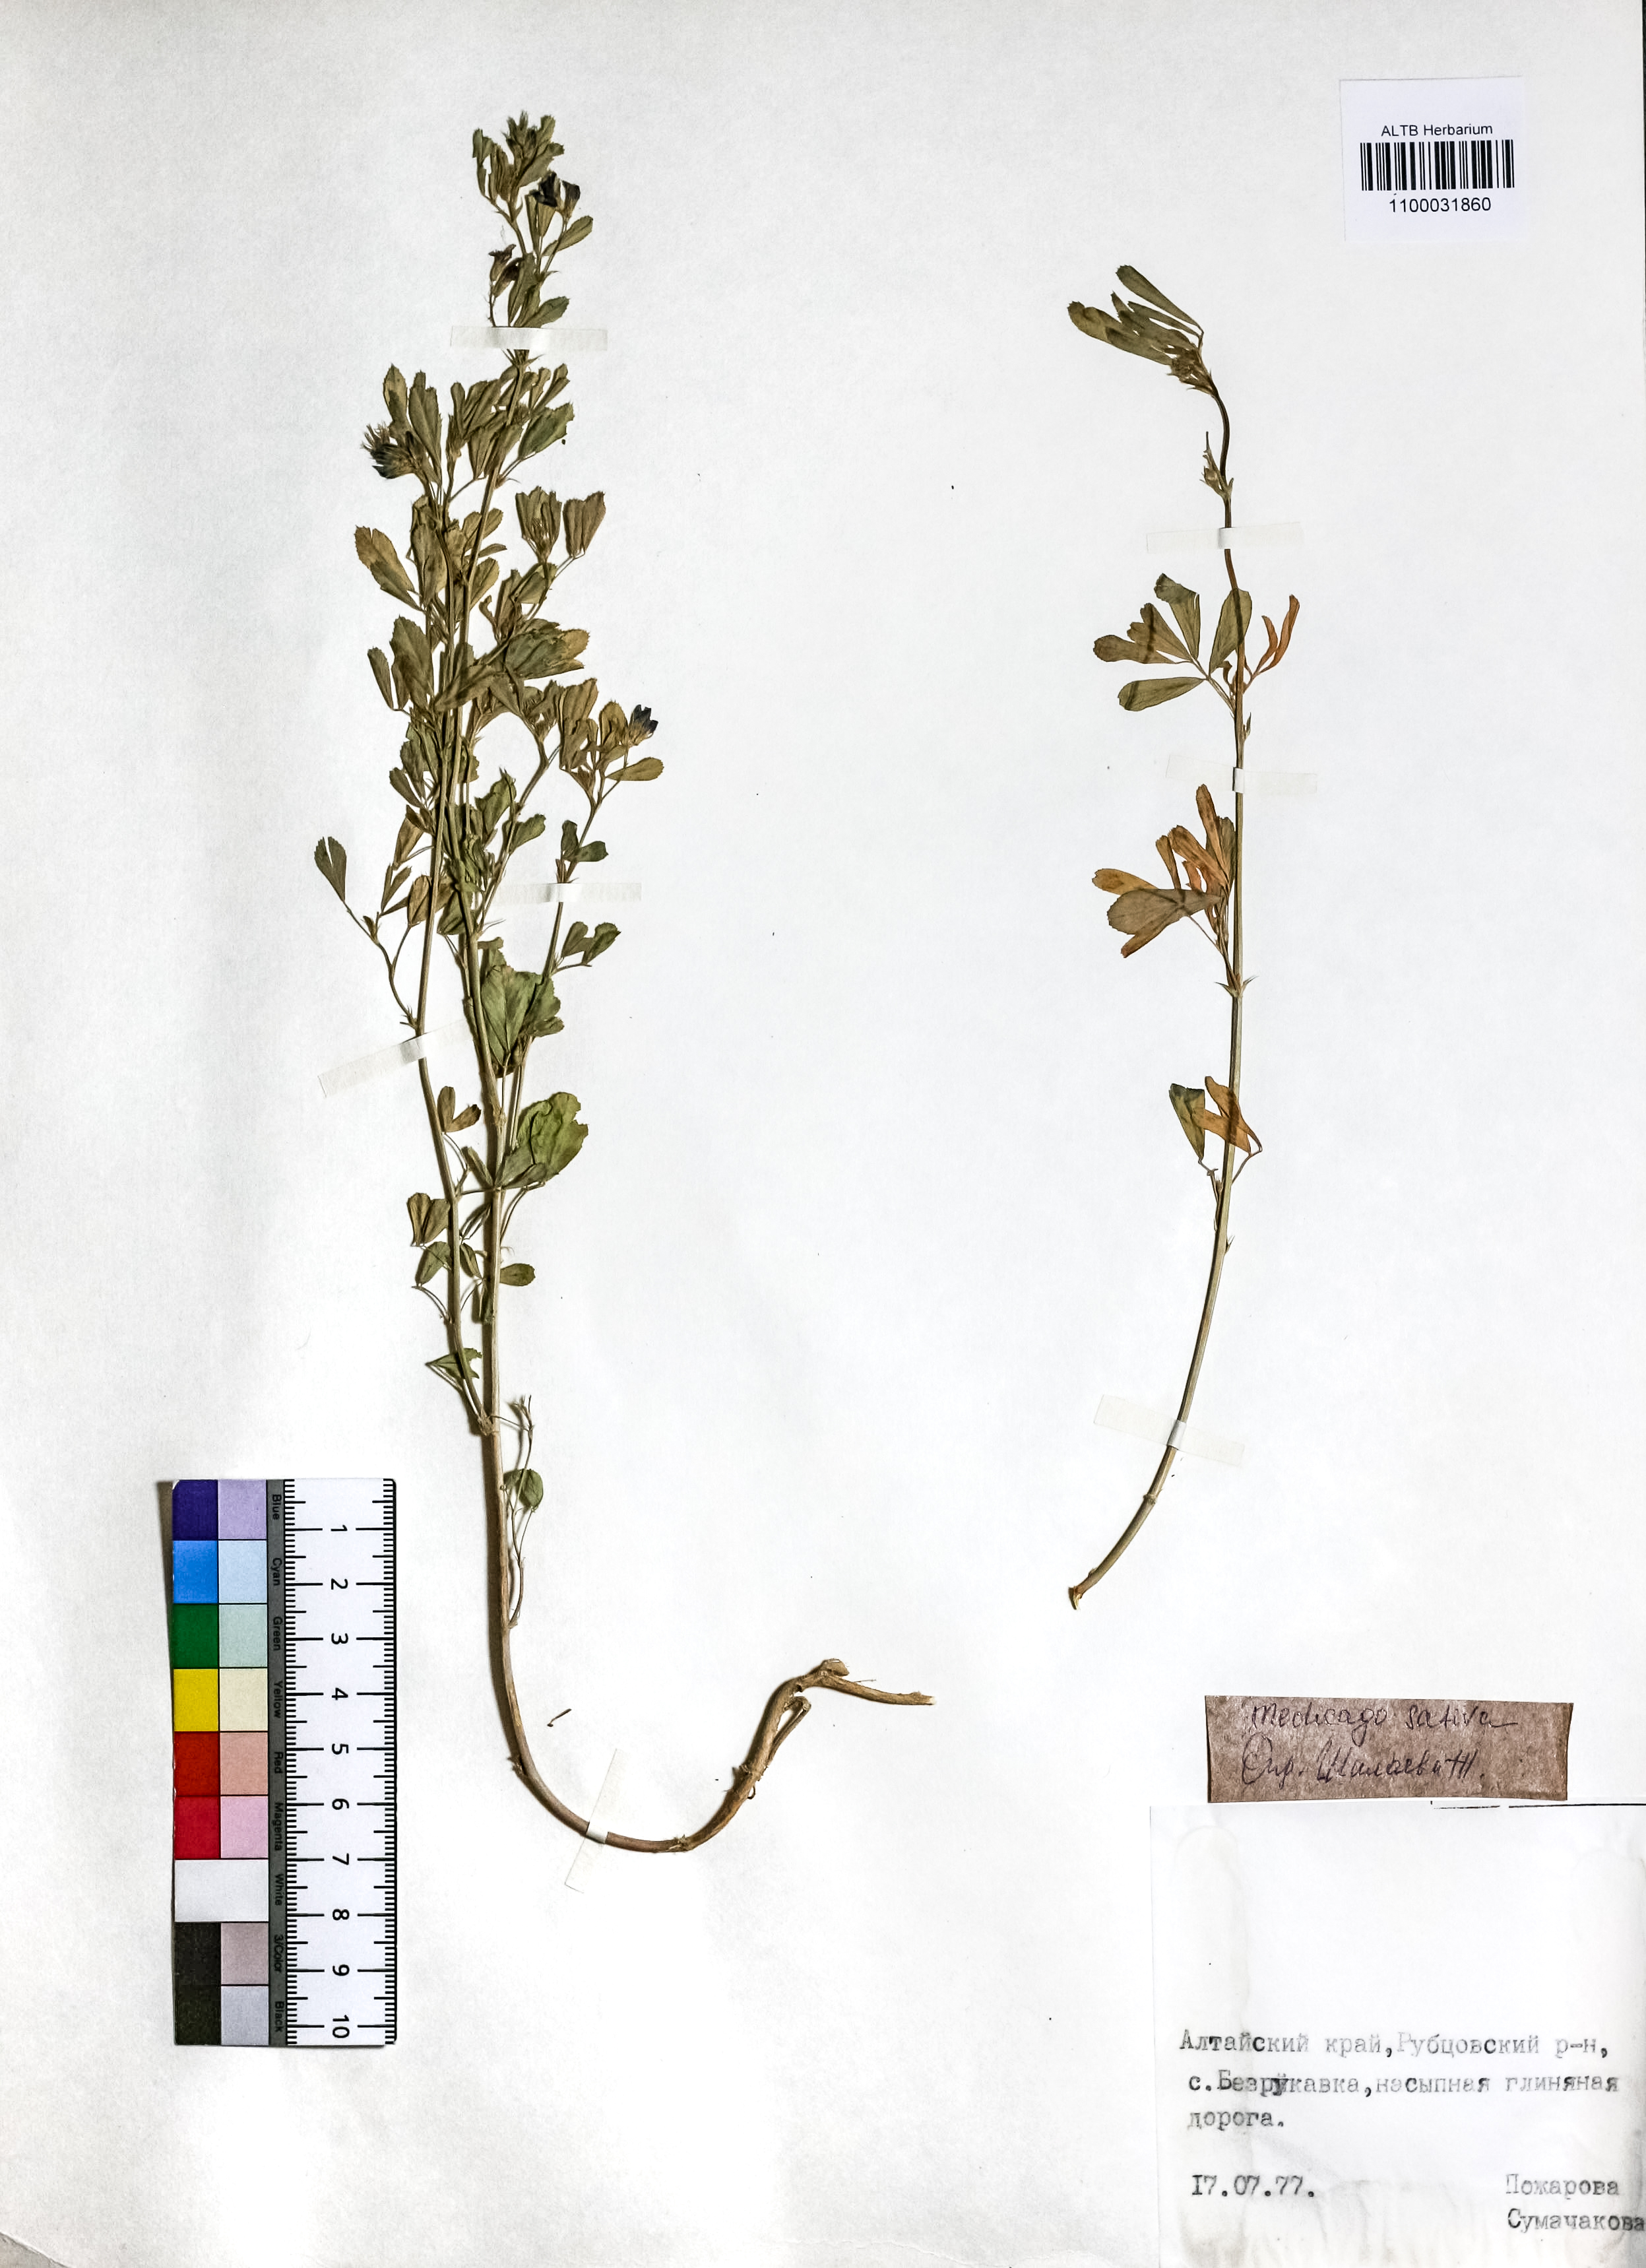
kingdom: Plantae
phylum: Tracheophyta
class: Magnoliopsida
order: Fabales
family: Fabaceae
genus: Medicago
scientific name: Medicago sativa
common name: Alfalfa
